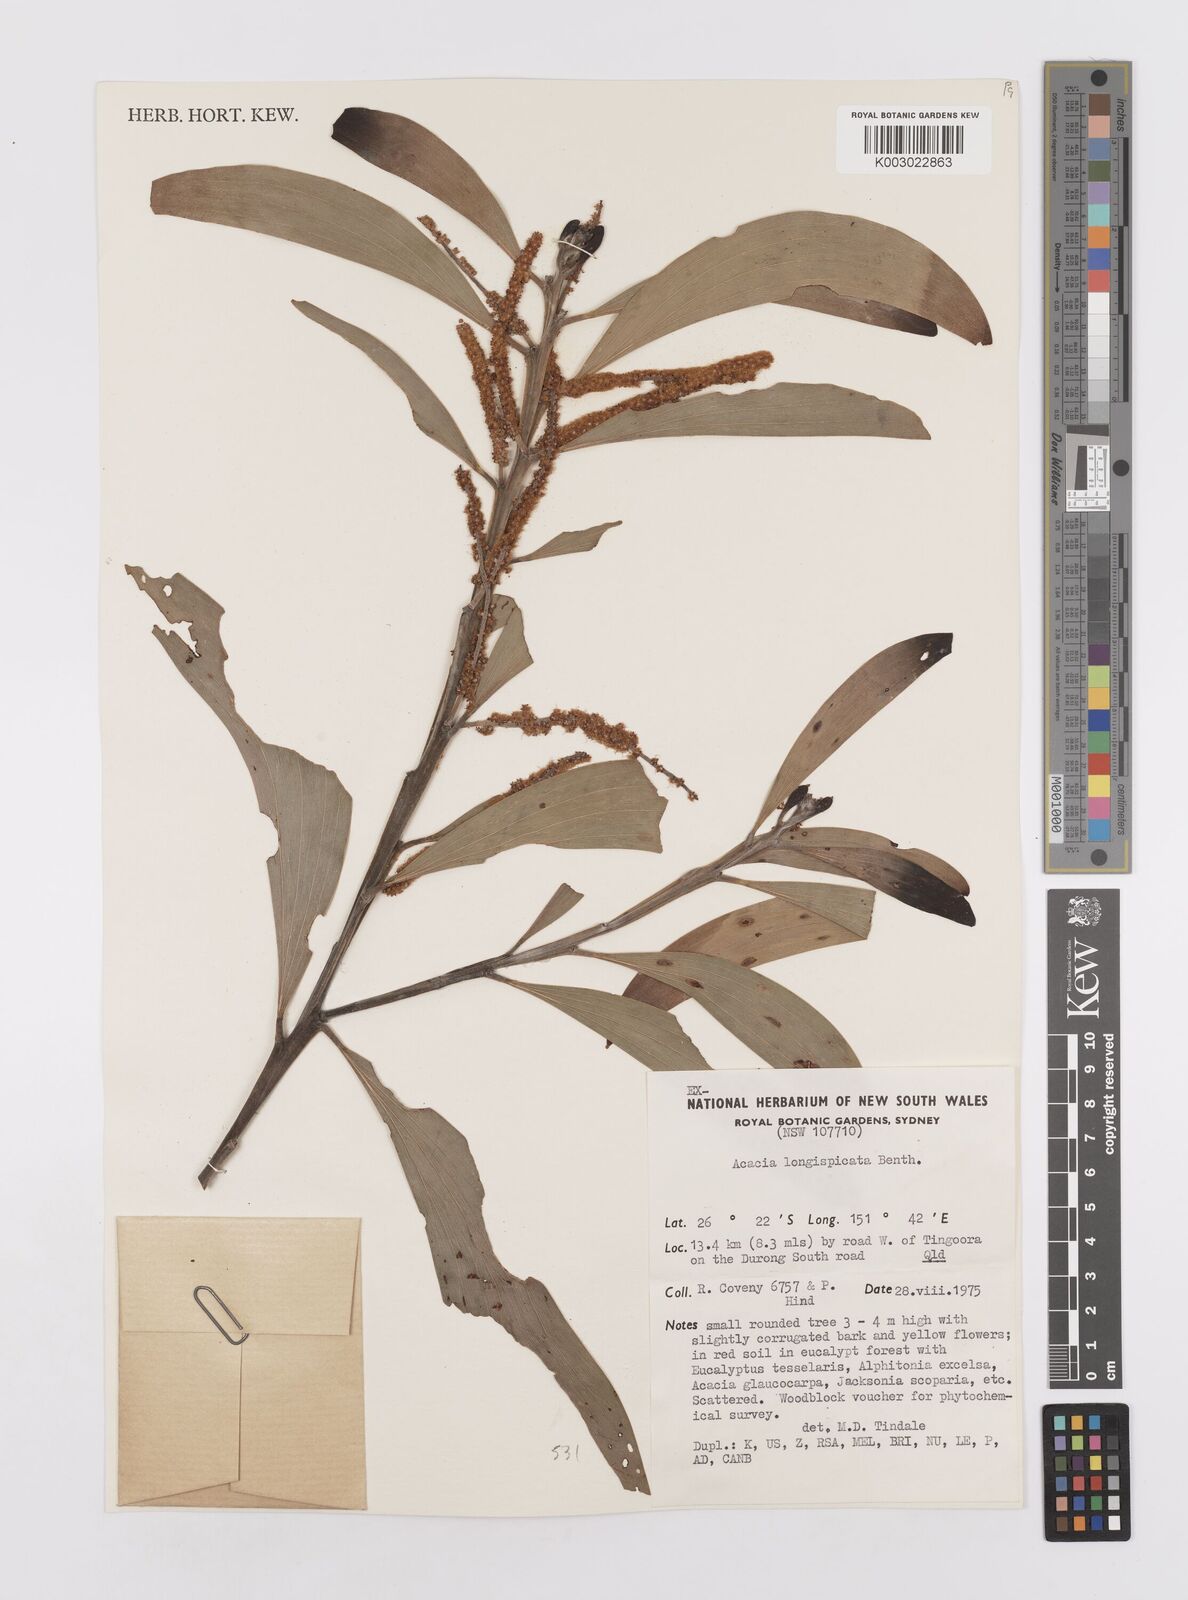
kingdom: Plantae
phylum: Tracheophyta
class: Magnoliopsida
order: Fabales
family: Fabaceae
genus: Acacia
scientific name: Acacia longispicata
